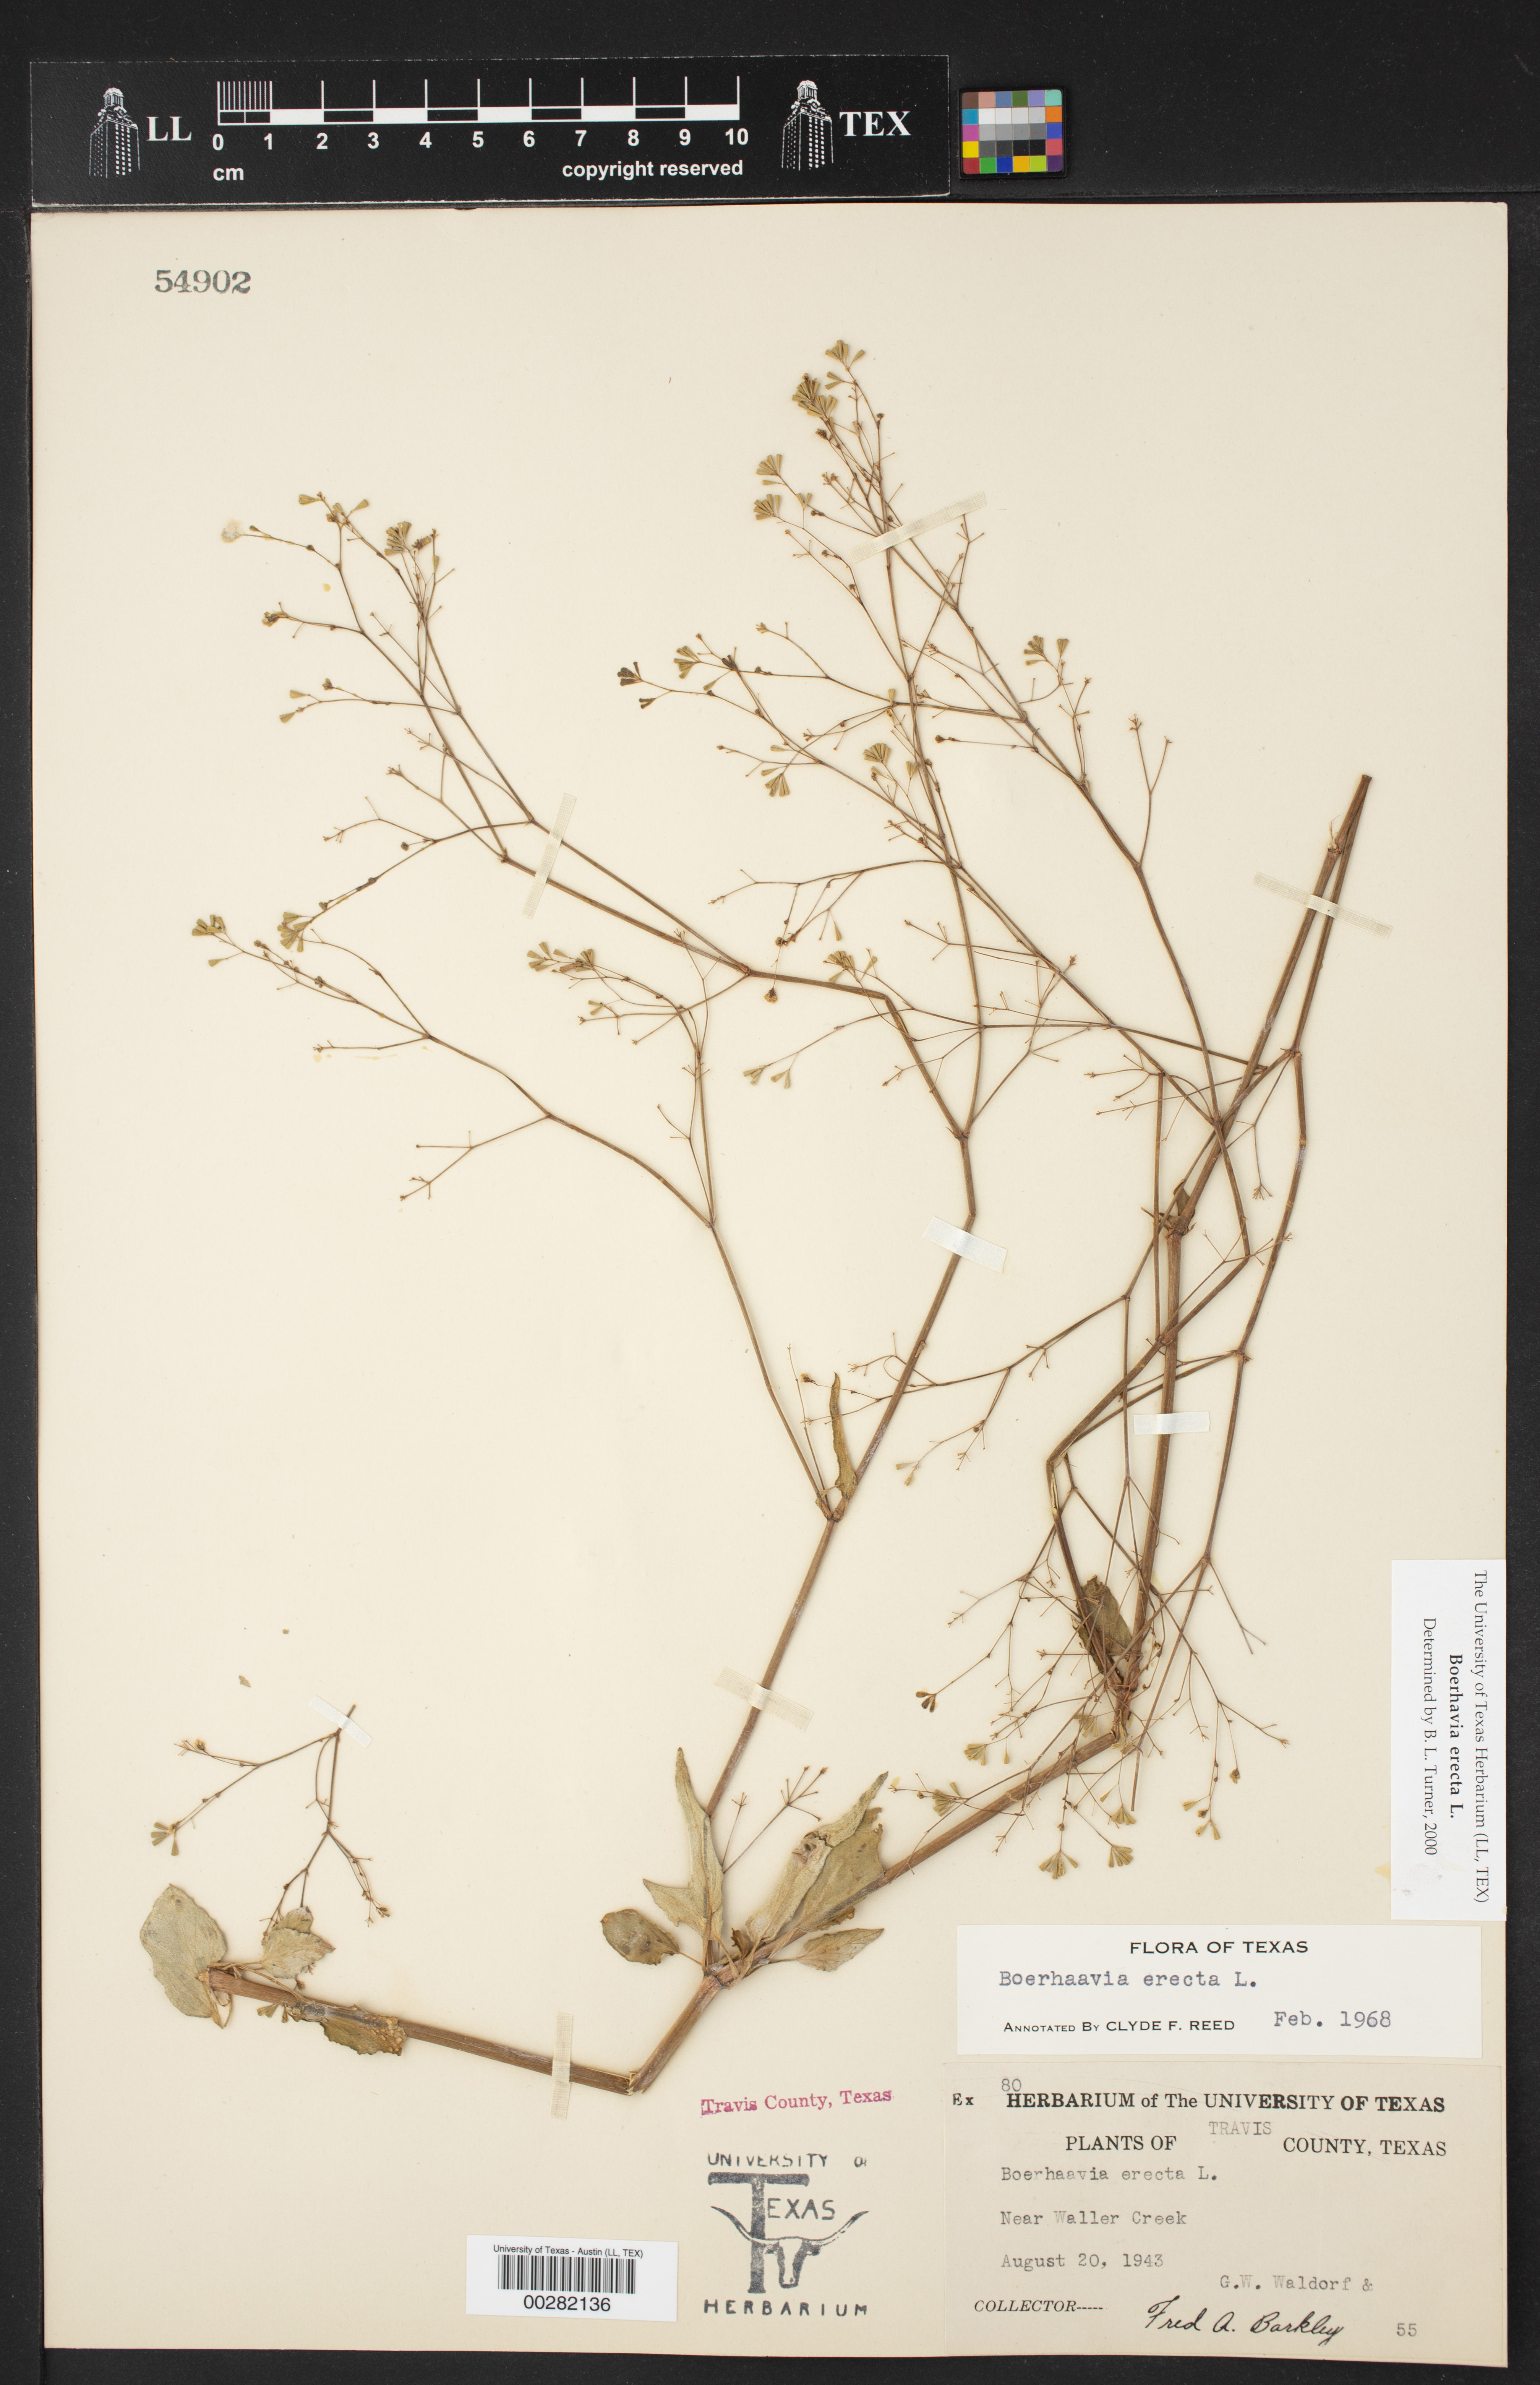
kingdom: Plantae
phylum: Tracheophyta
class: Magnoliopsida
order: Caryophyllales
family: Nyctaginaceae
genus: Boerhavia
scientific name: Boerhavia erecta
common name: Erect spiderling
